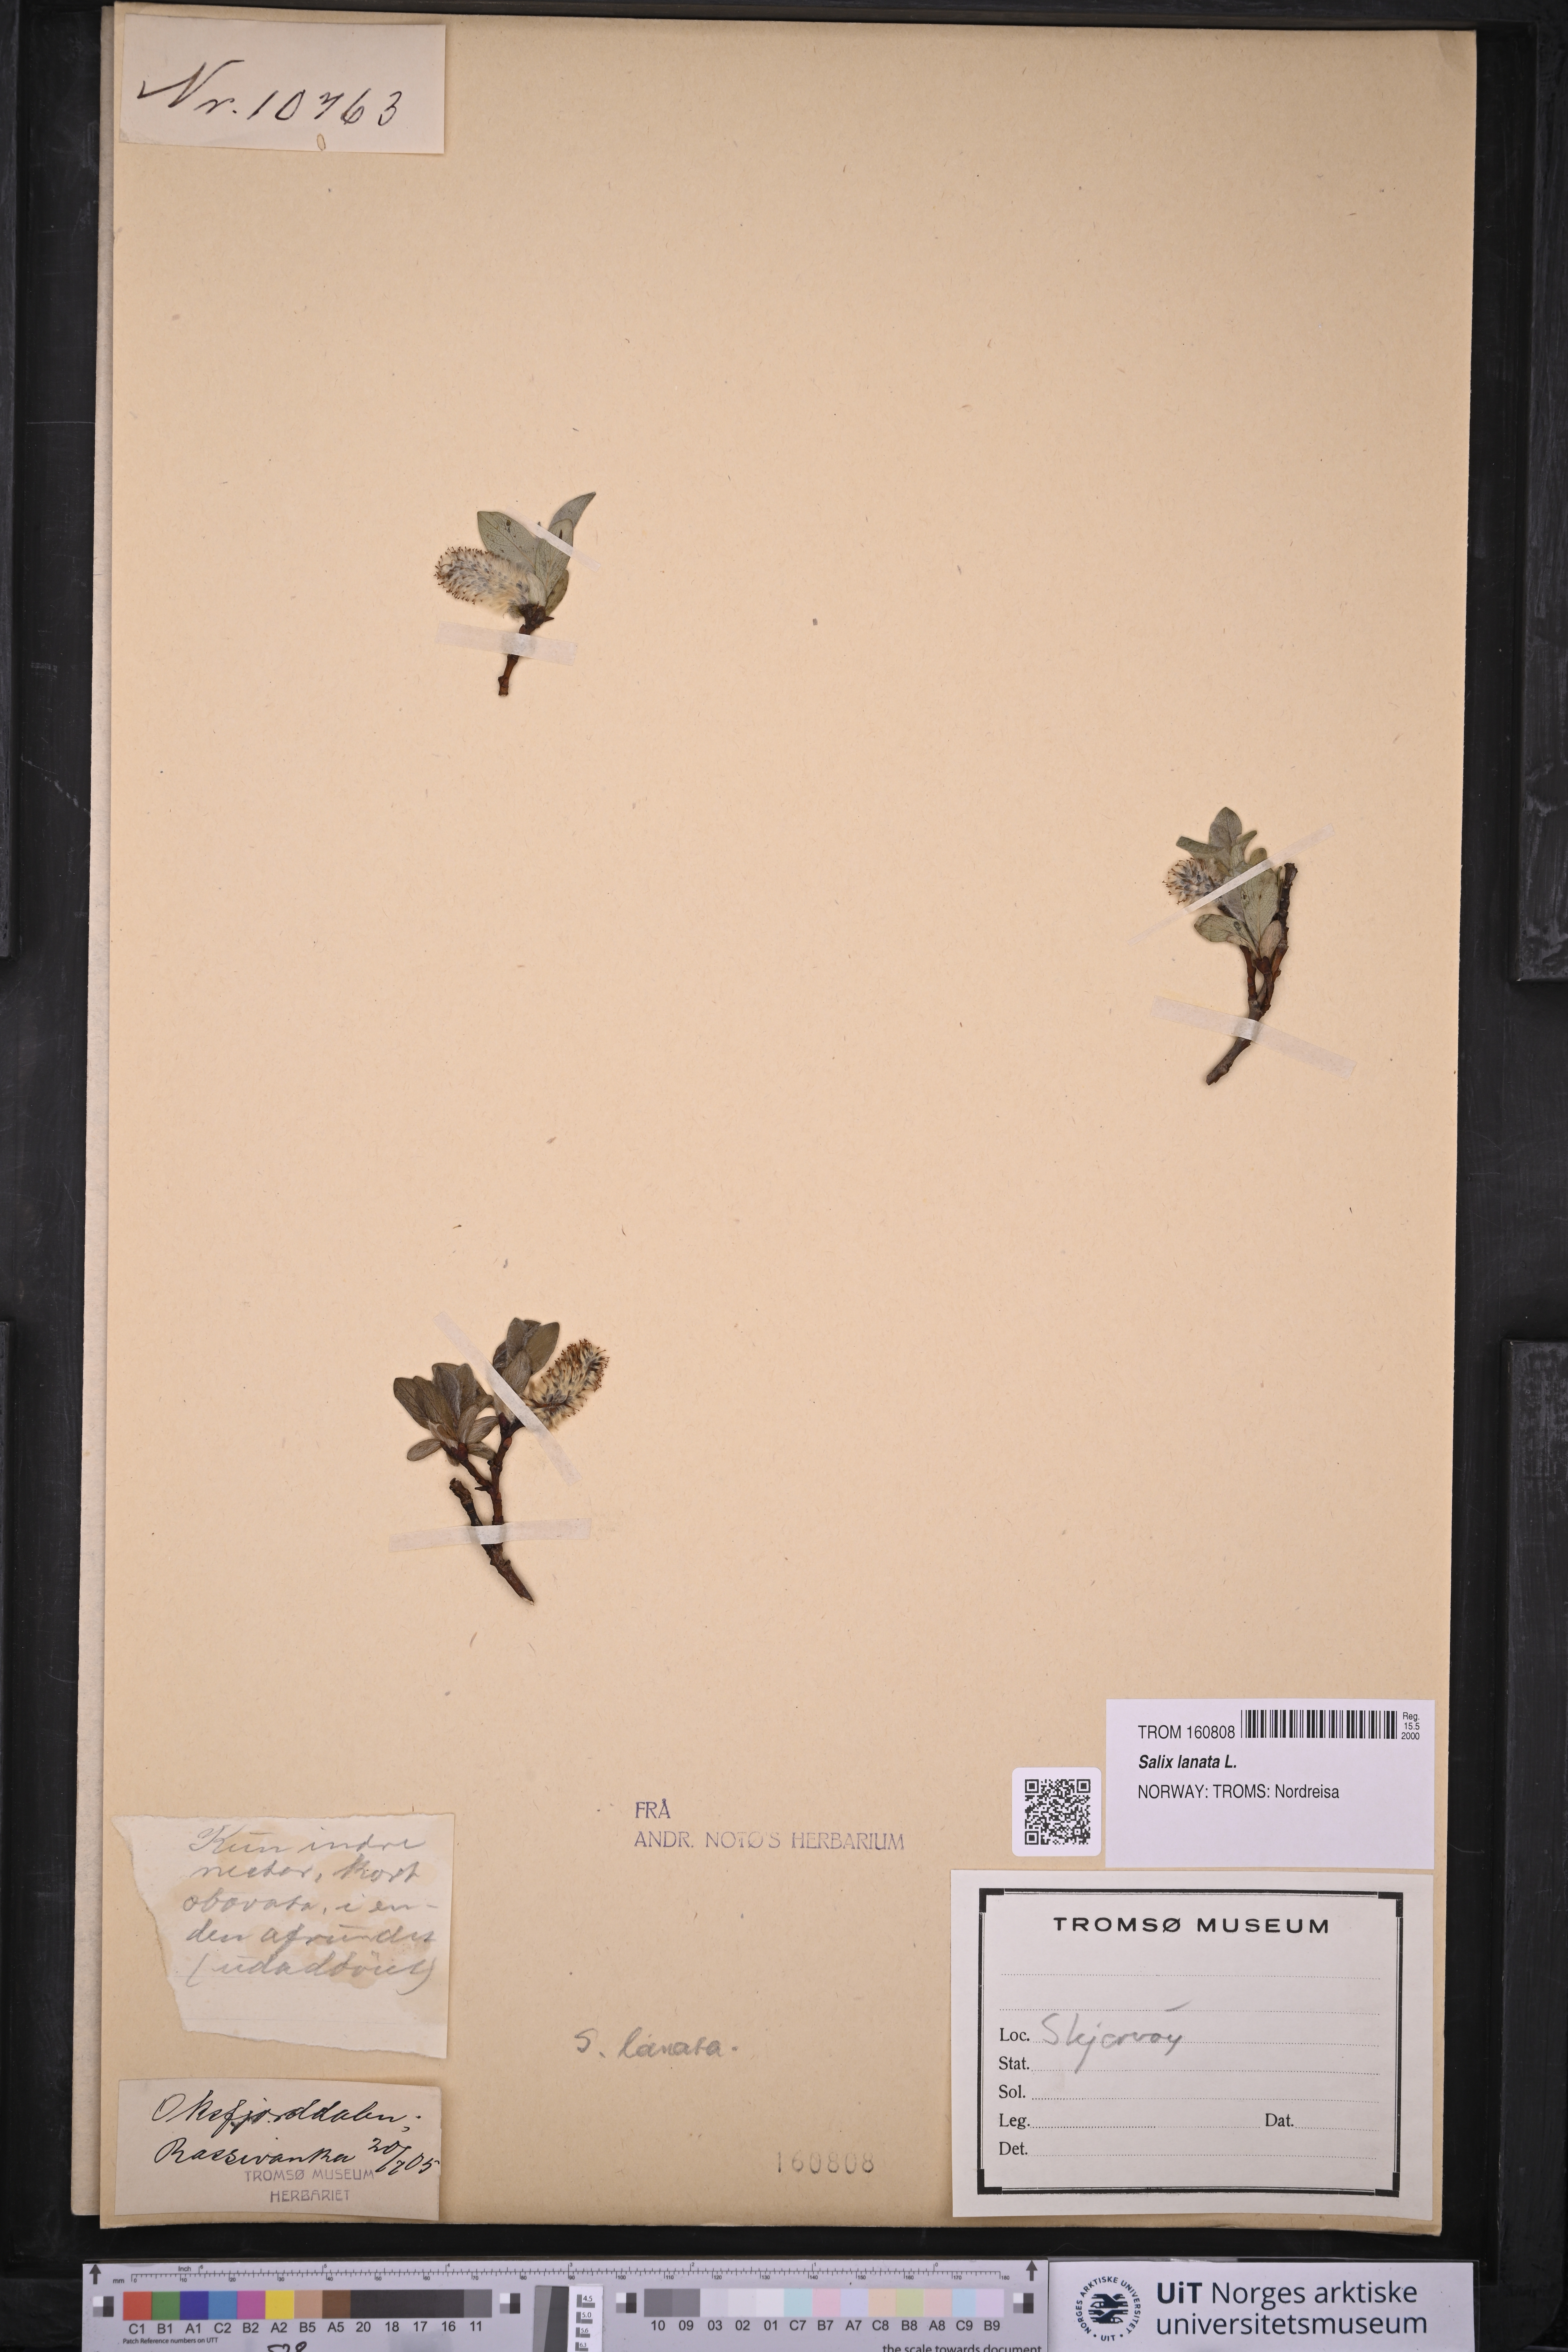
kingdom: Plantae
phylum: Tracheophyta
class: Magnoliopsida
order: Malpighiales
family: Salicaceae
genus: Salix
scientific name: Salix lanata
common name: Woolly willow
